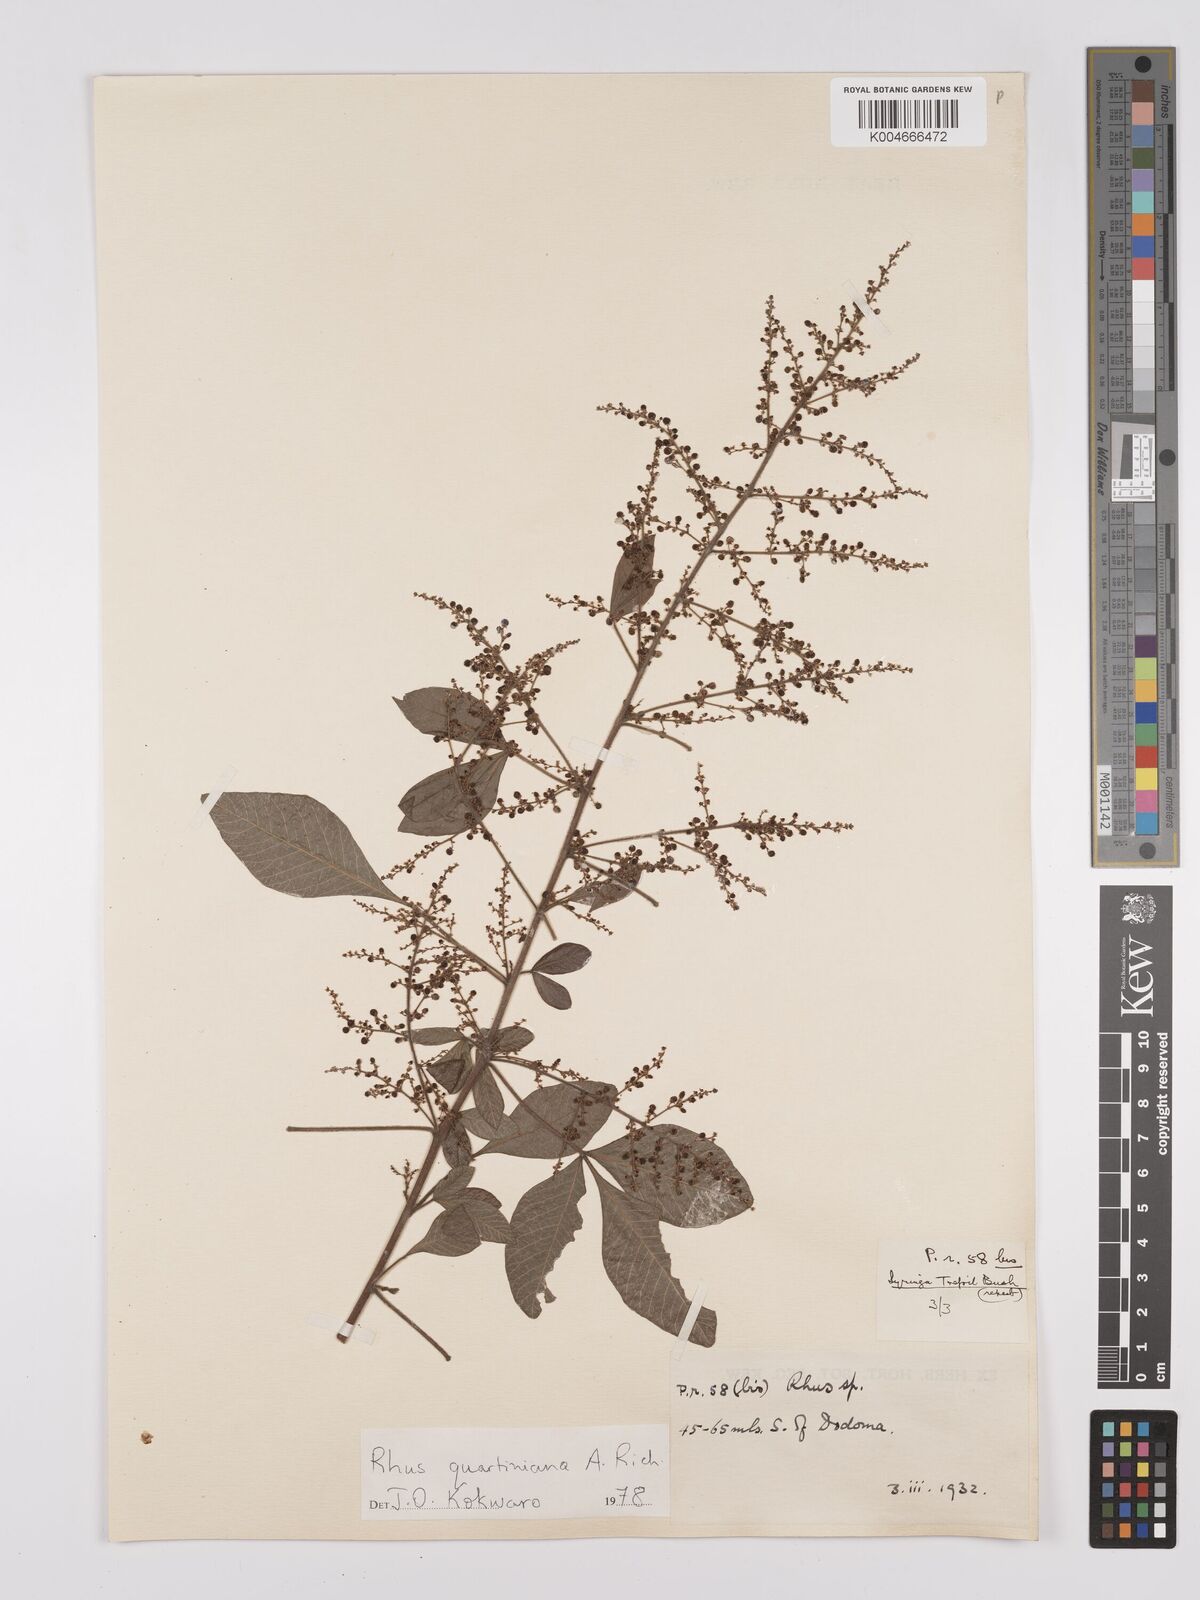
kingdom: Plantae
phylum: Tracheophyta
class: Magnoliopsida
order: Sapindales
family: Anacardiaceae
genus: Searsia
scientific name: Searsia quartiniana
